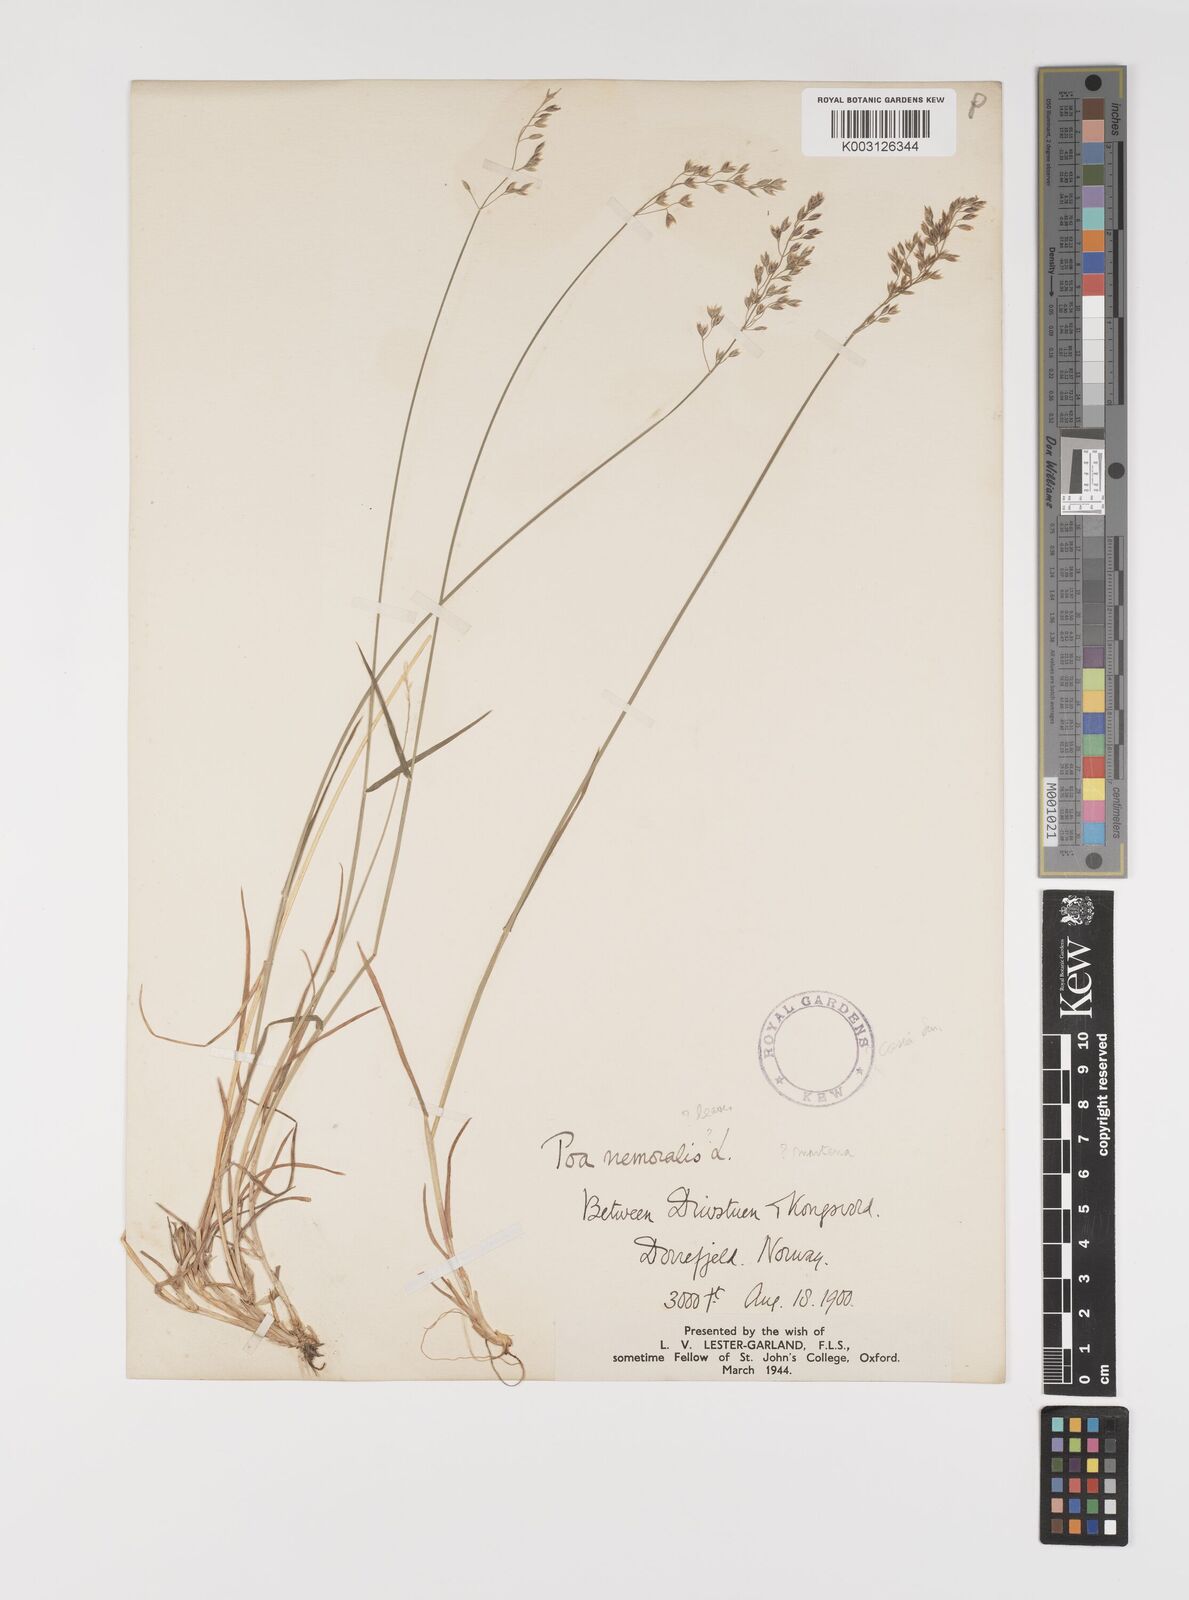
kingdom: Plantae
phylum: Tracheophyta
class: Liliopsida
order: Poales
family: Poaceae
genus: Poa
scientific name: Poa glauca
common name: Glaucous bluegrass
